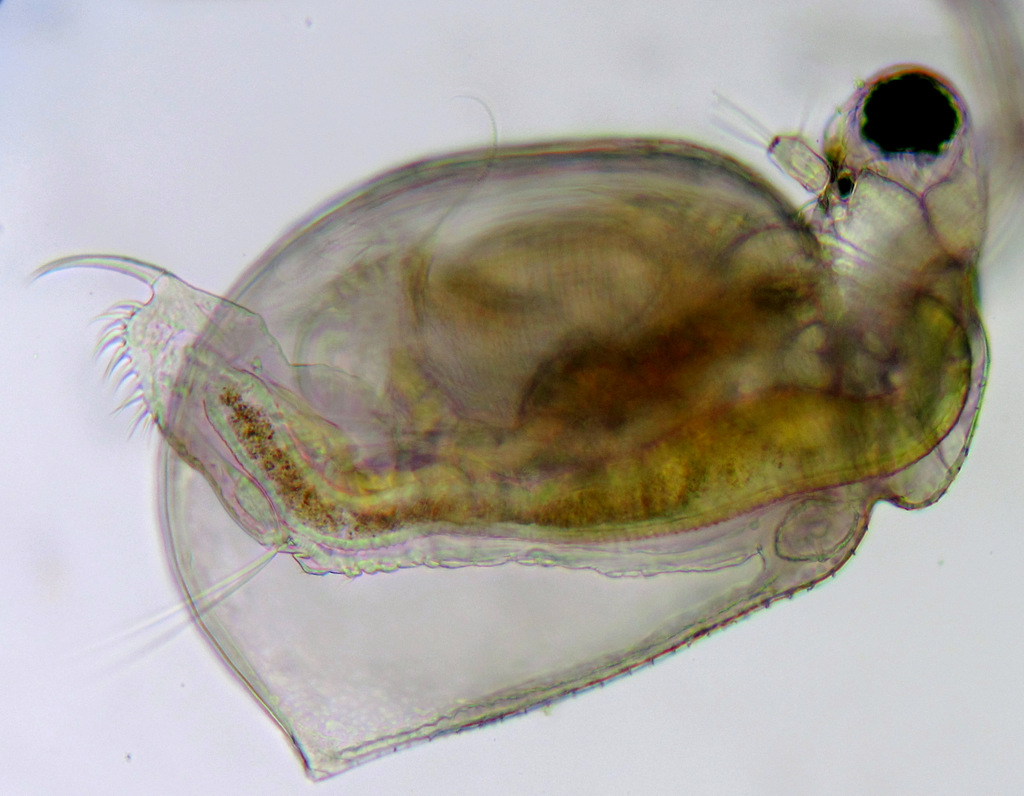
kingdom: Animalia
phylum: Arthropoda
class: Branchiopoda
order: Diplostraca
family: Daphniidae
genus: Ceriodaphnia
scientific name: Ceriodaphnia quadrangula
